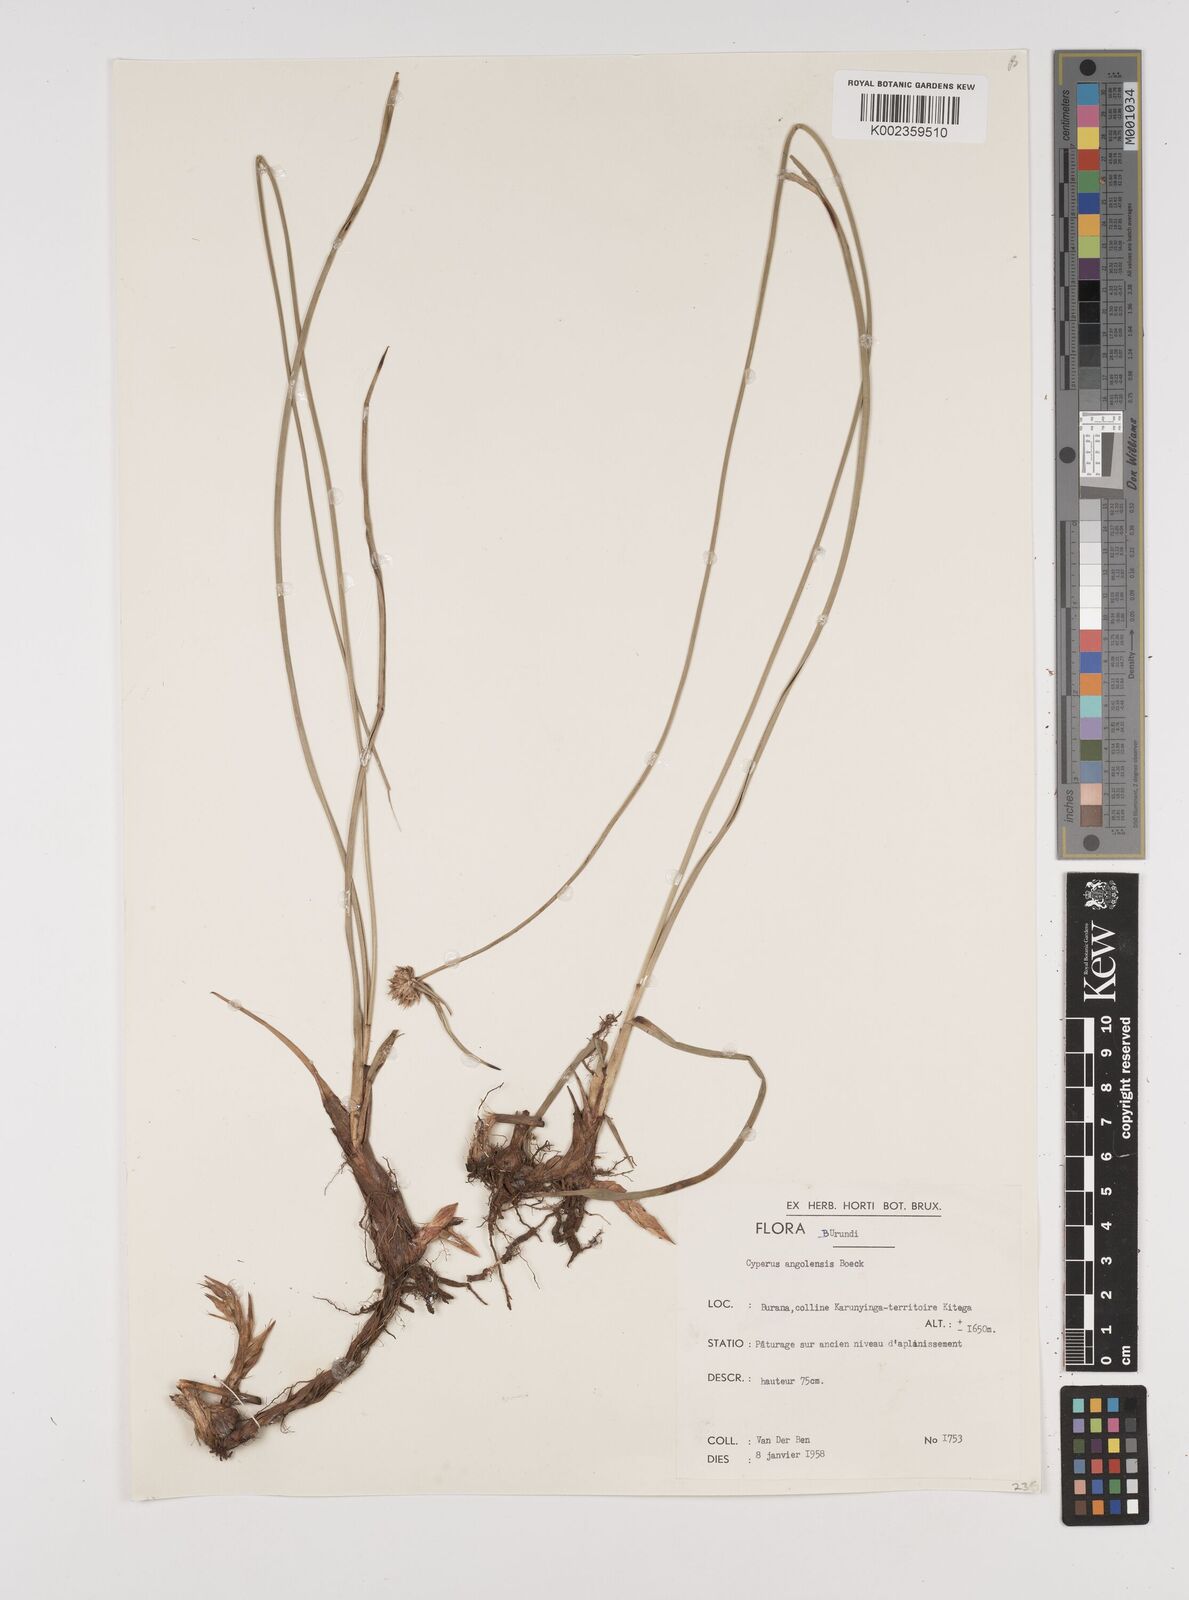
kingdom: Plantae
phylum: Tracheophyta
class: Liliopsida
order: Poales
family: Cyperaceae
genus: Cyperus
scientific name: Cyperus angolensis
